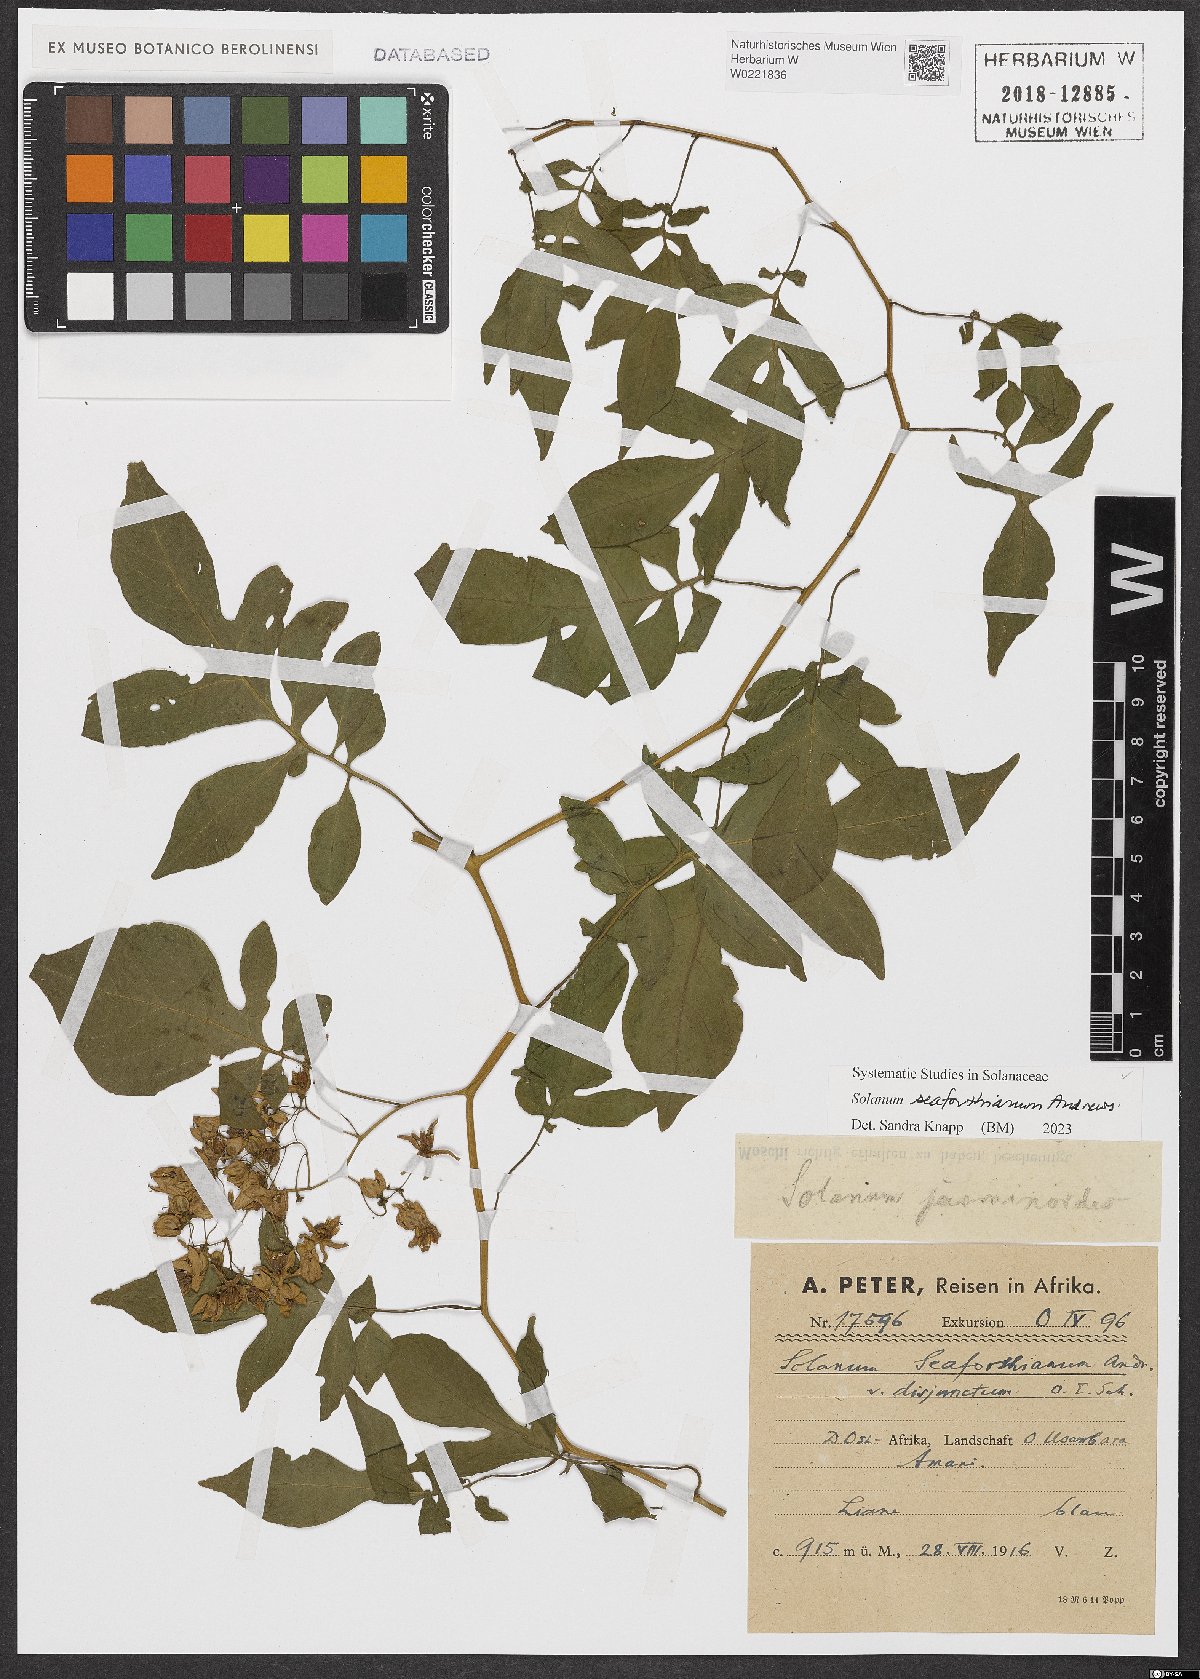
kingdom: Plantae
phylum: Tracheophyta
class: Magnoliopsida
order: Solanales
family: Solanaceae
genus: Solanum
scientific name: Solanum seaforthianum
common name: Brazilian nightshade
